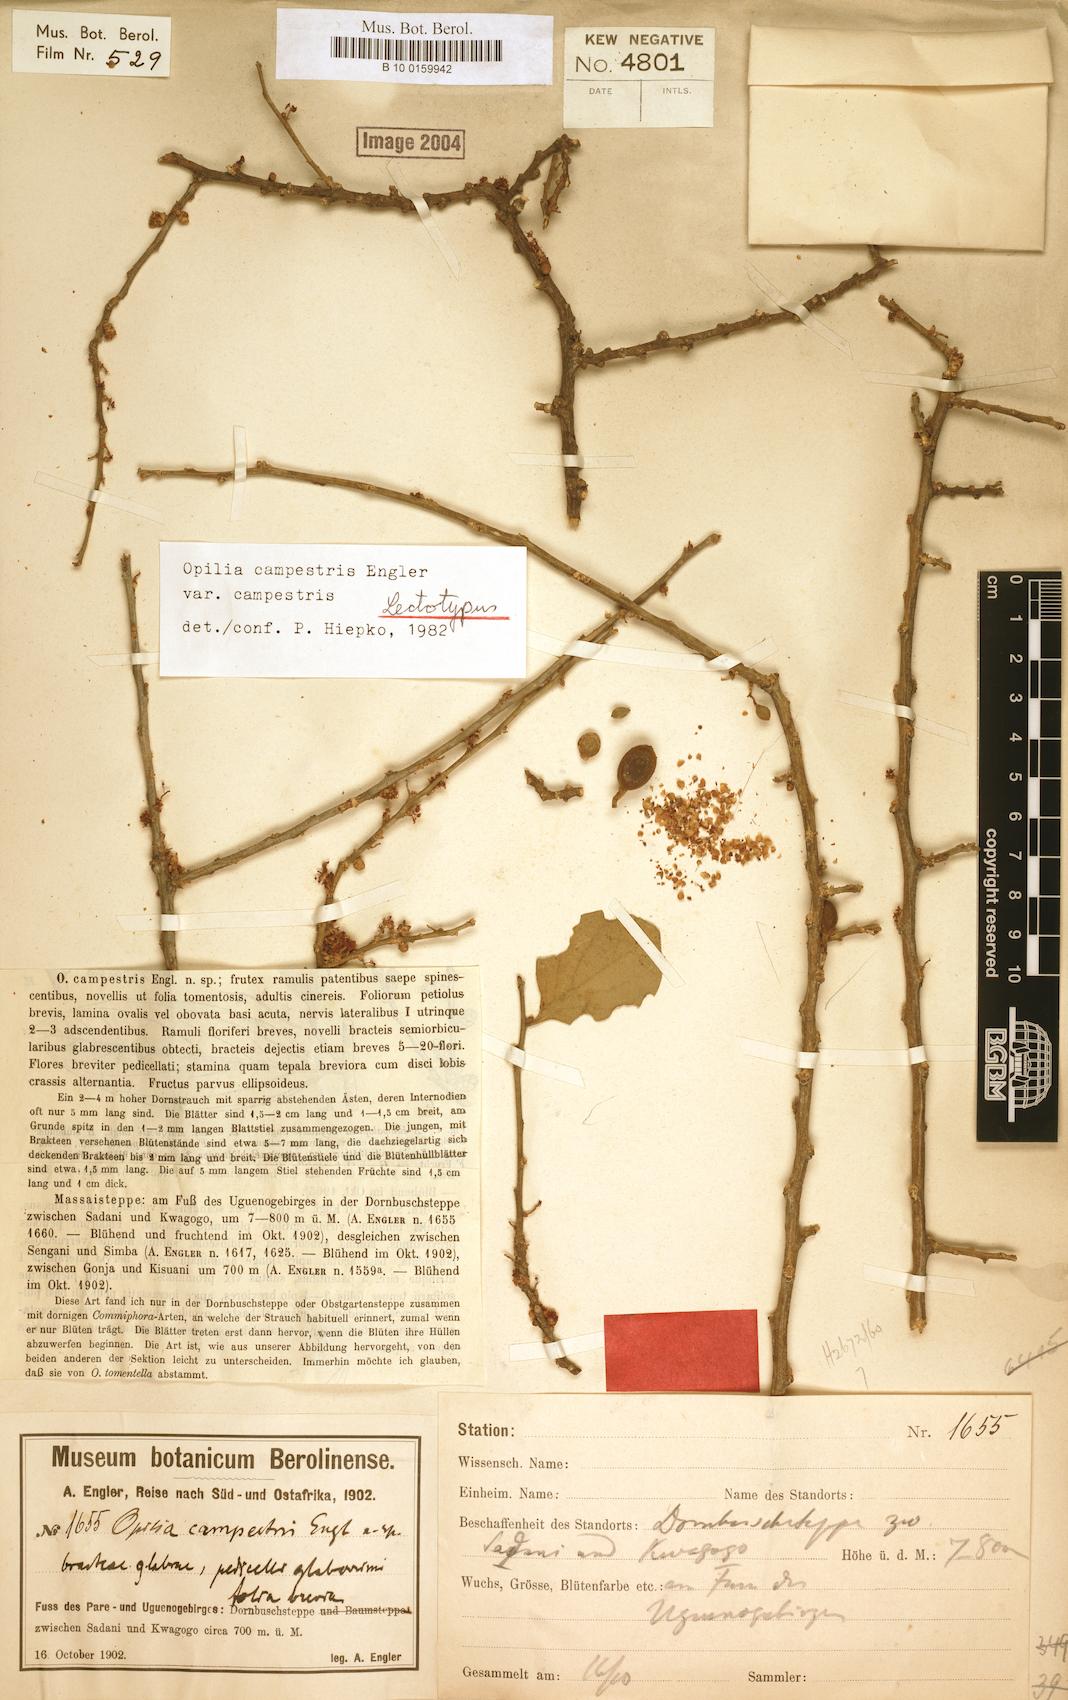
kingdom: Plantae
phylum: Tracheophyta
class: Magnoliopsida
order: Santalales
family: Opiliaceae
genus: Opilia
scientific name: Opilia campestris
